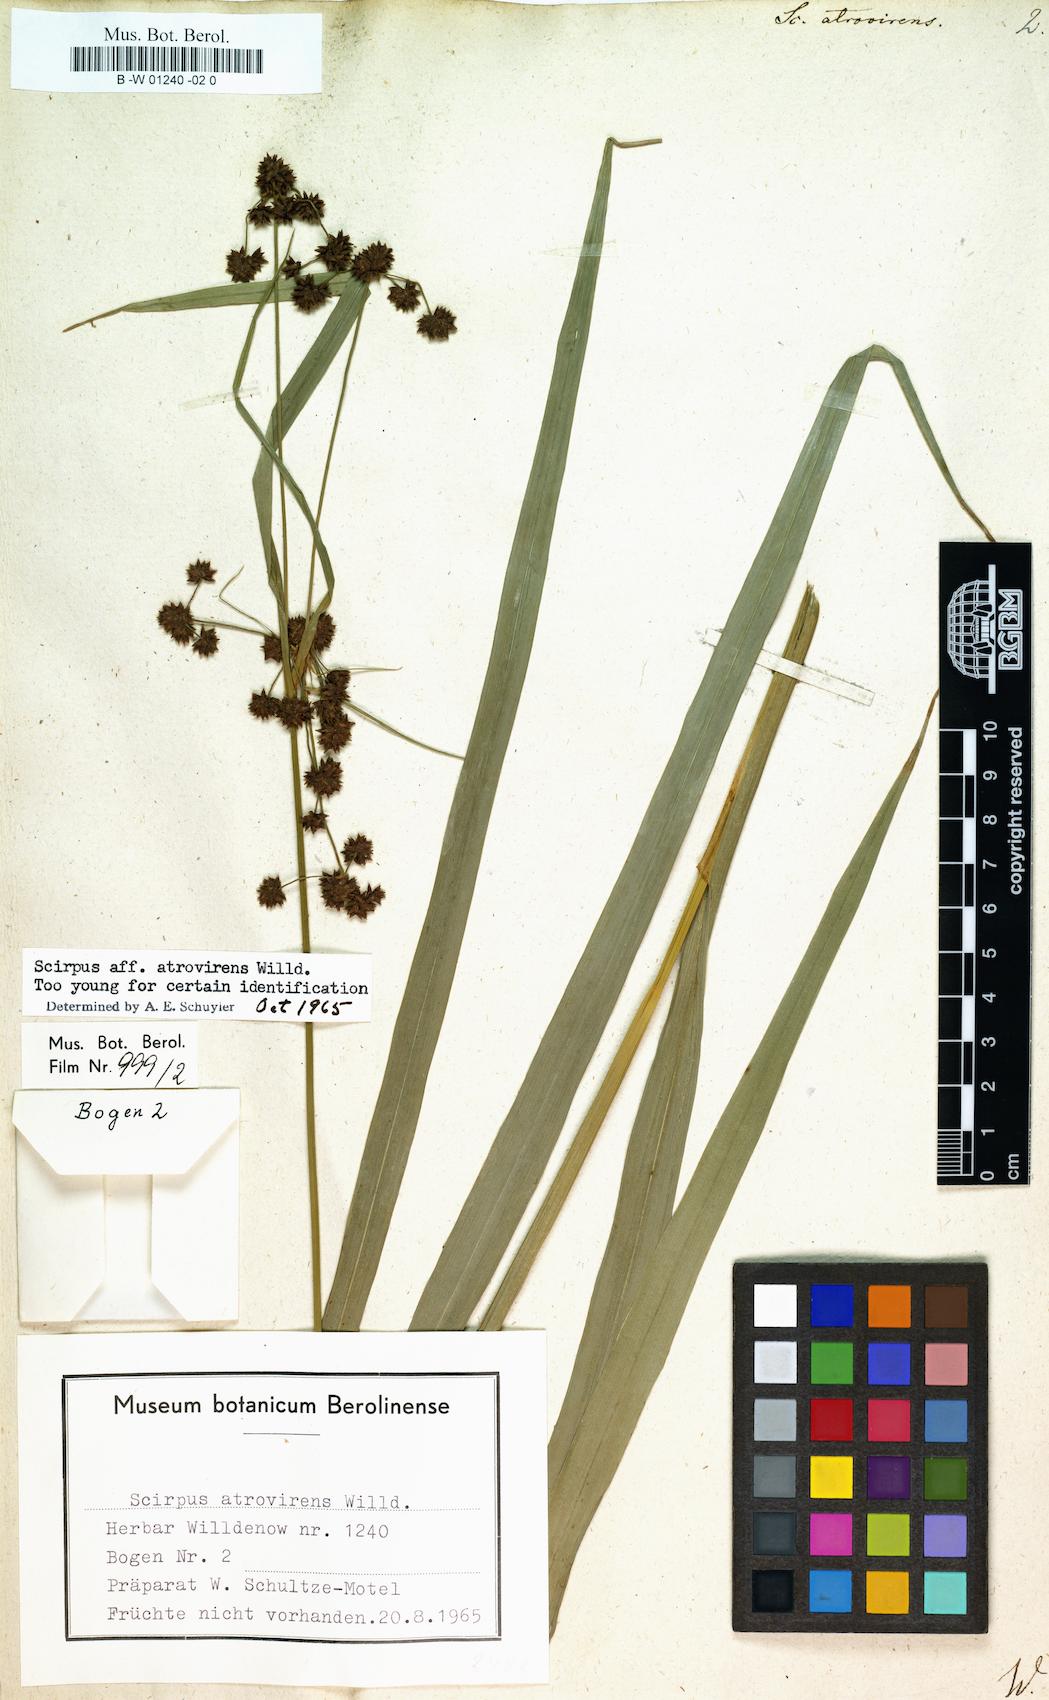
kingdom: Plantae
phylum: Tracheophyta
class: Liliopsida
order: Poales
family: Cyperaceae
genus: Scirpus
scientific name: Scirpus atrovirens
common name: Black bulrush
